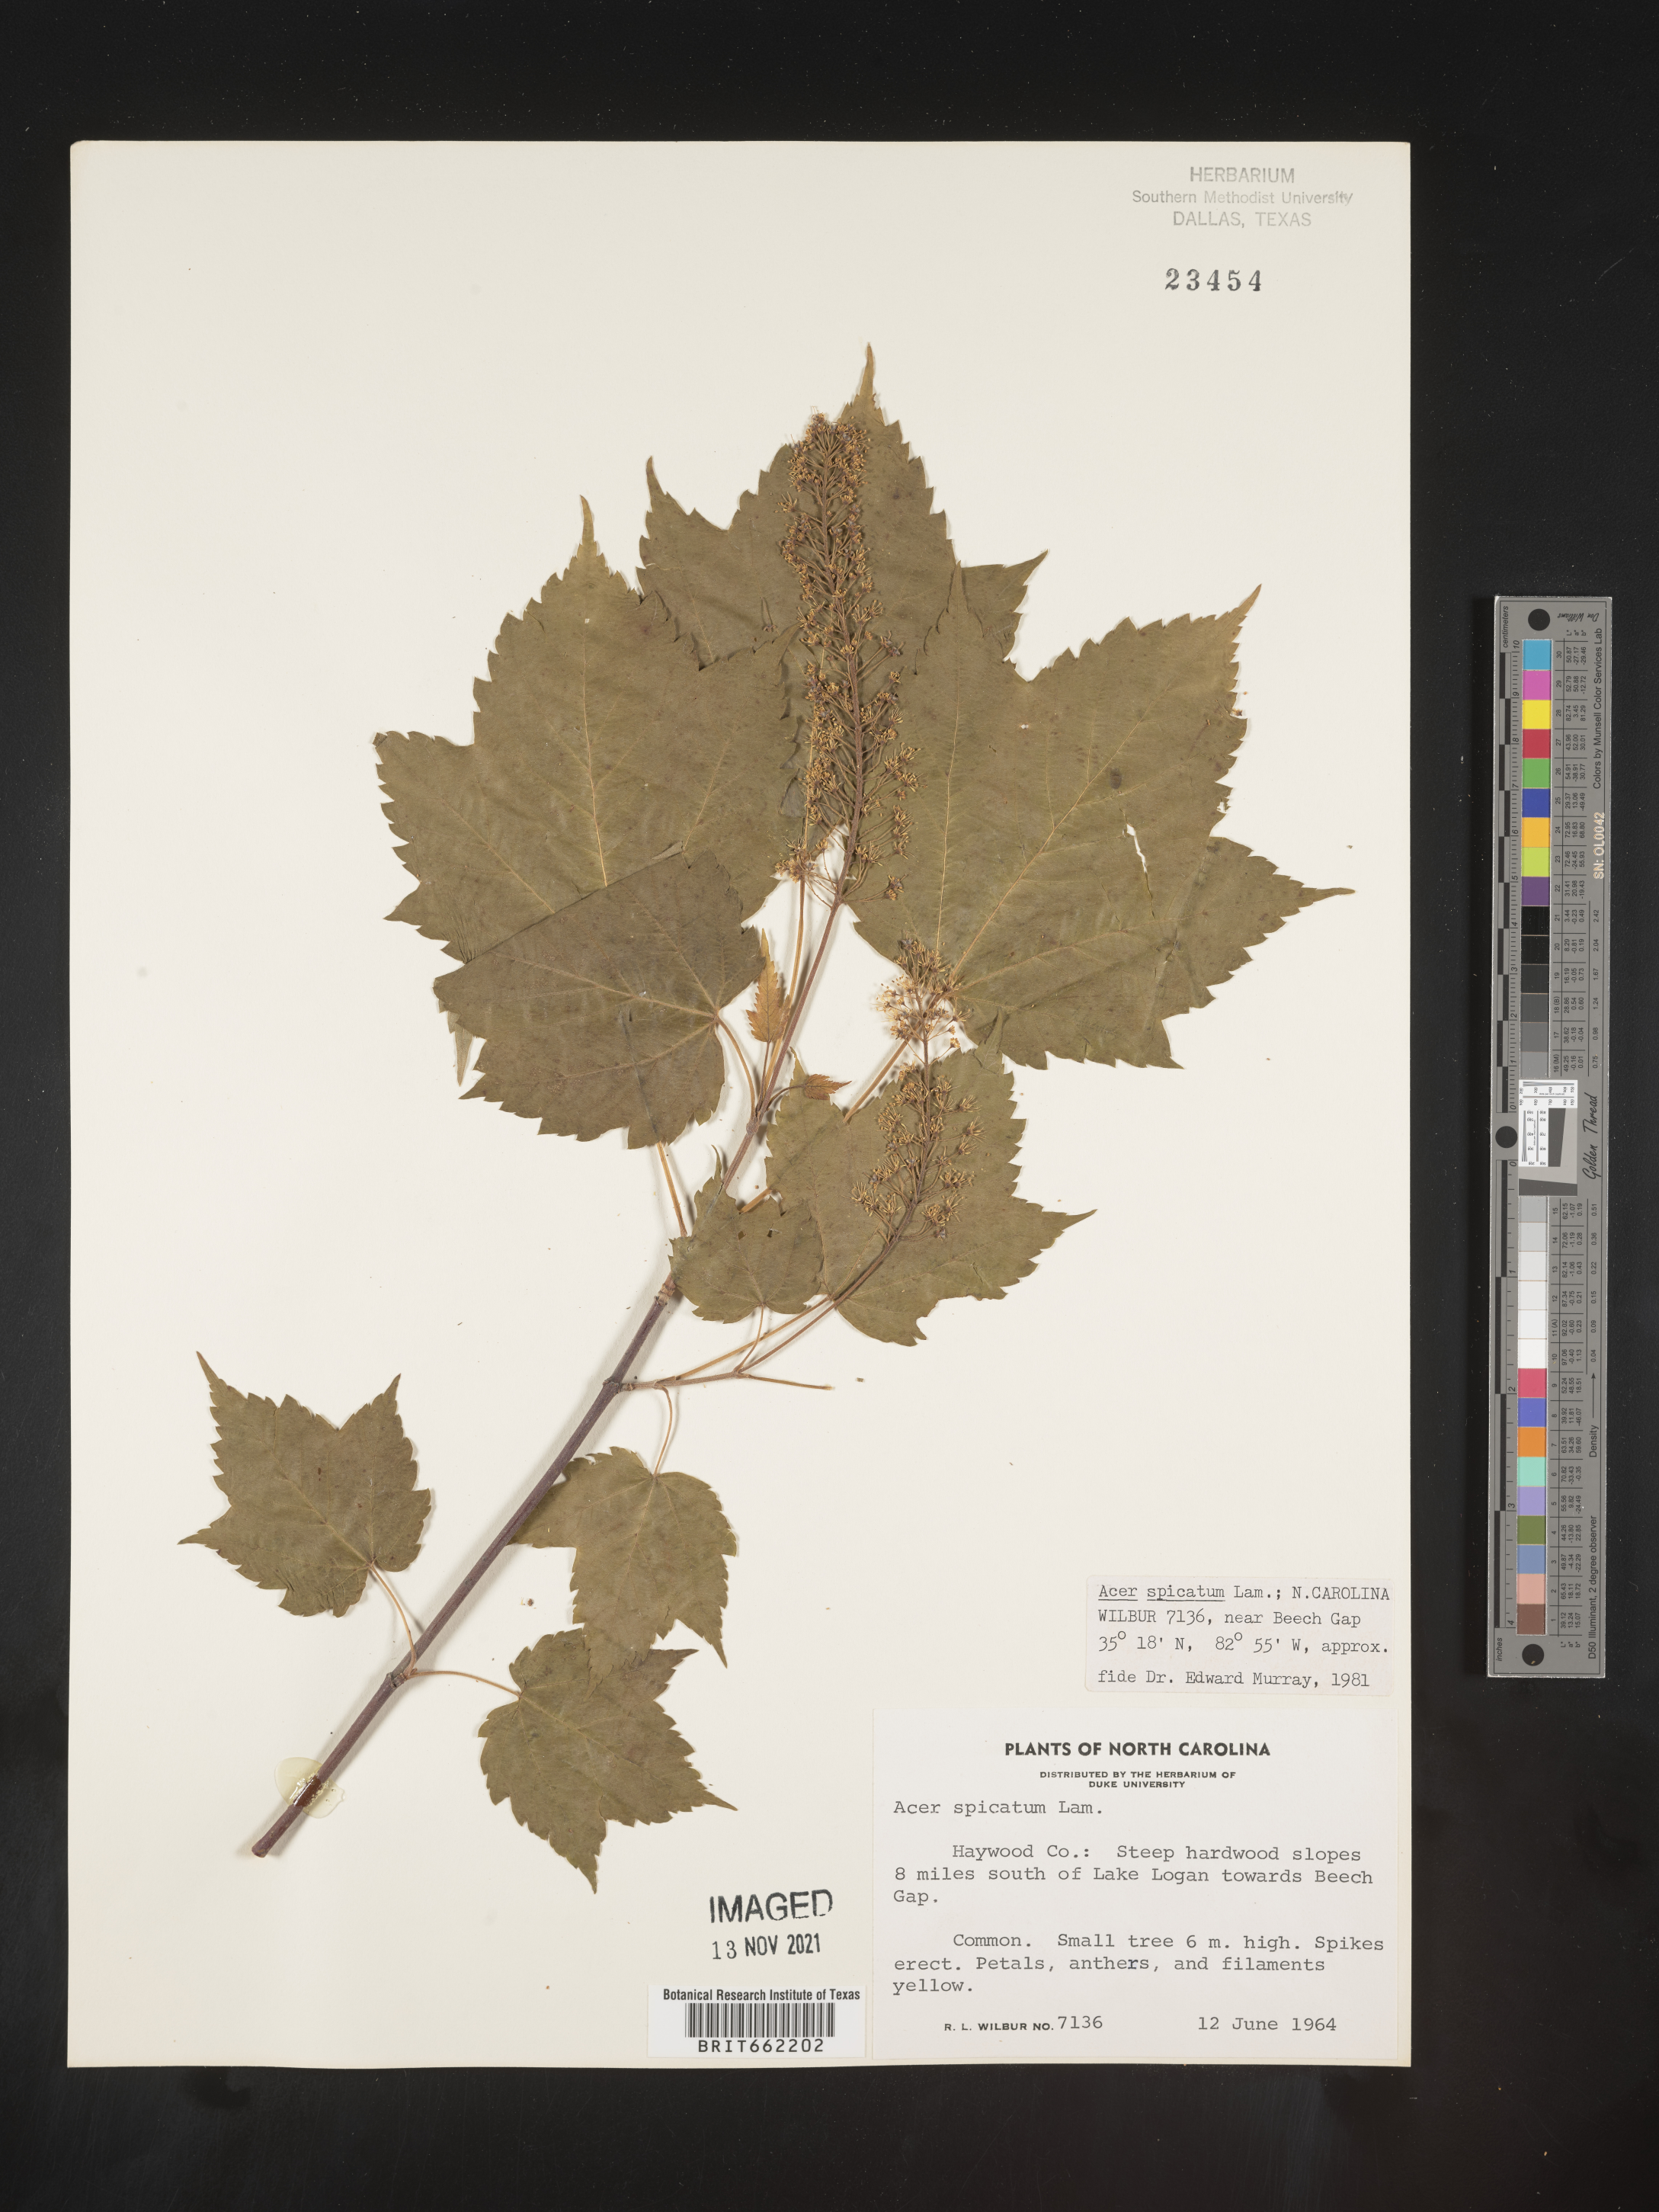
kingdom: Plantae
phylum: Tracheophyta
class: Magnoliopsida
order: Sapindales
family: Sapindaceae
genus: Acer
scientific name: Acer spicatum
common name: Mountain maple
